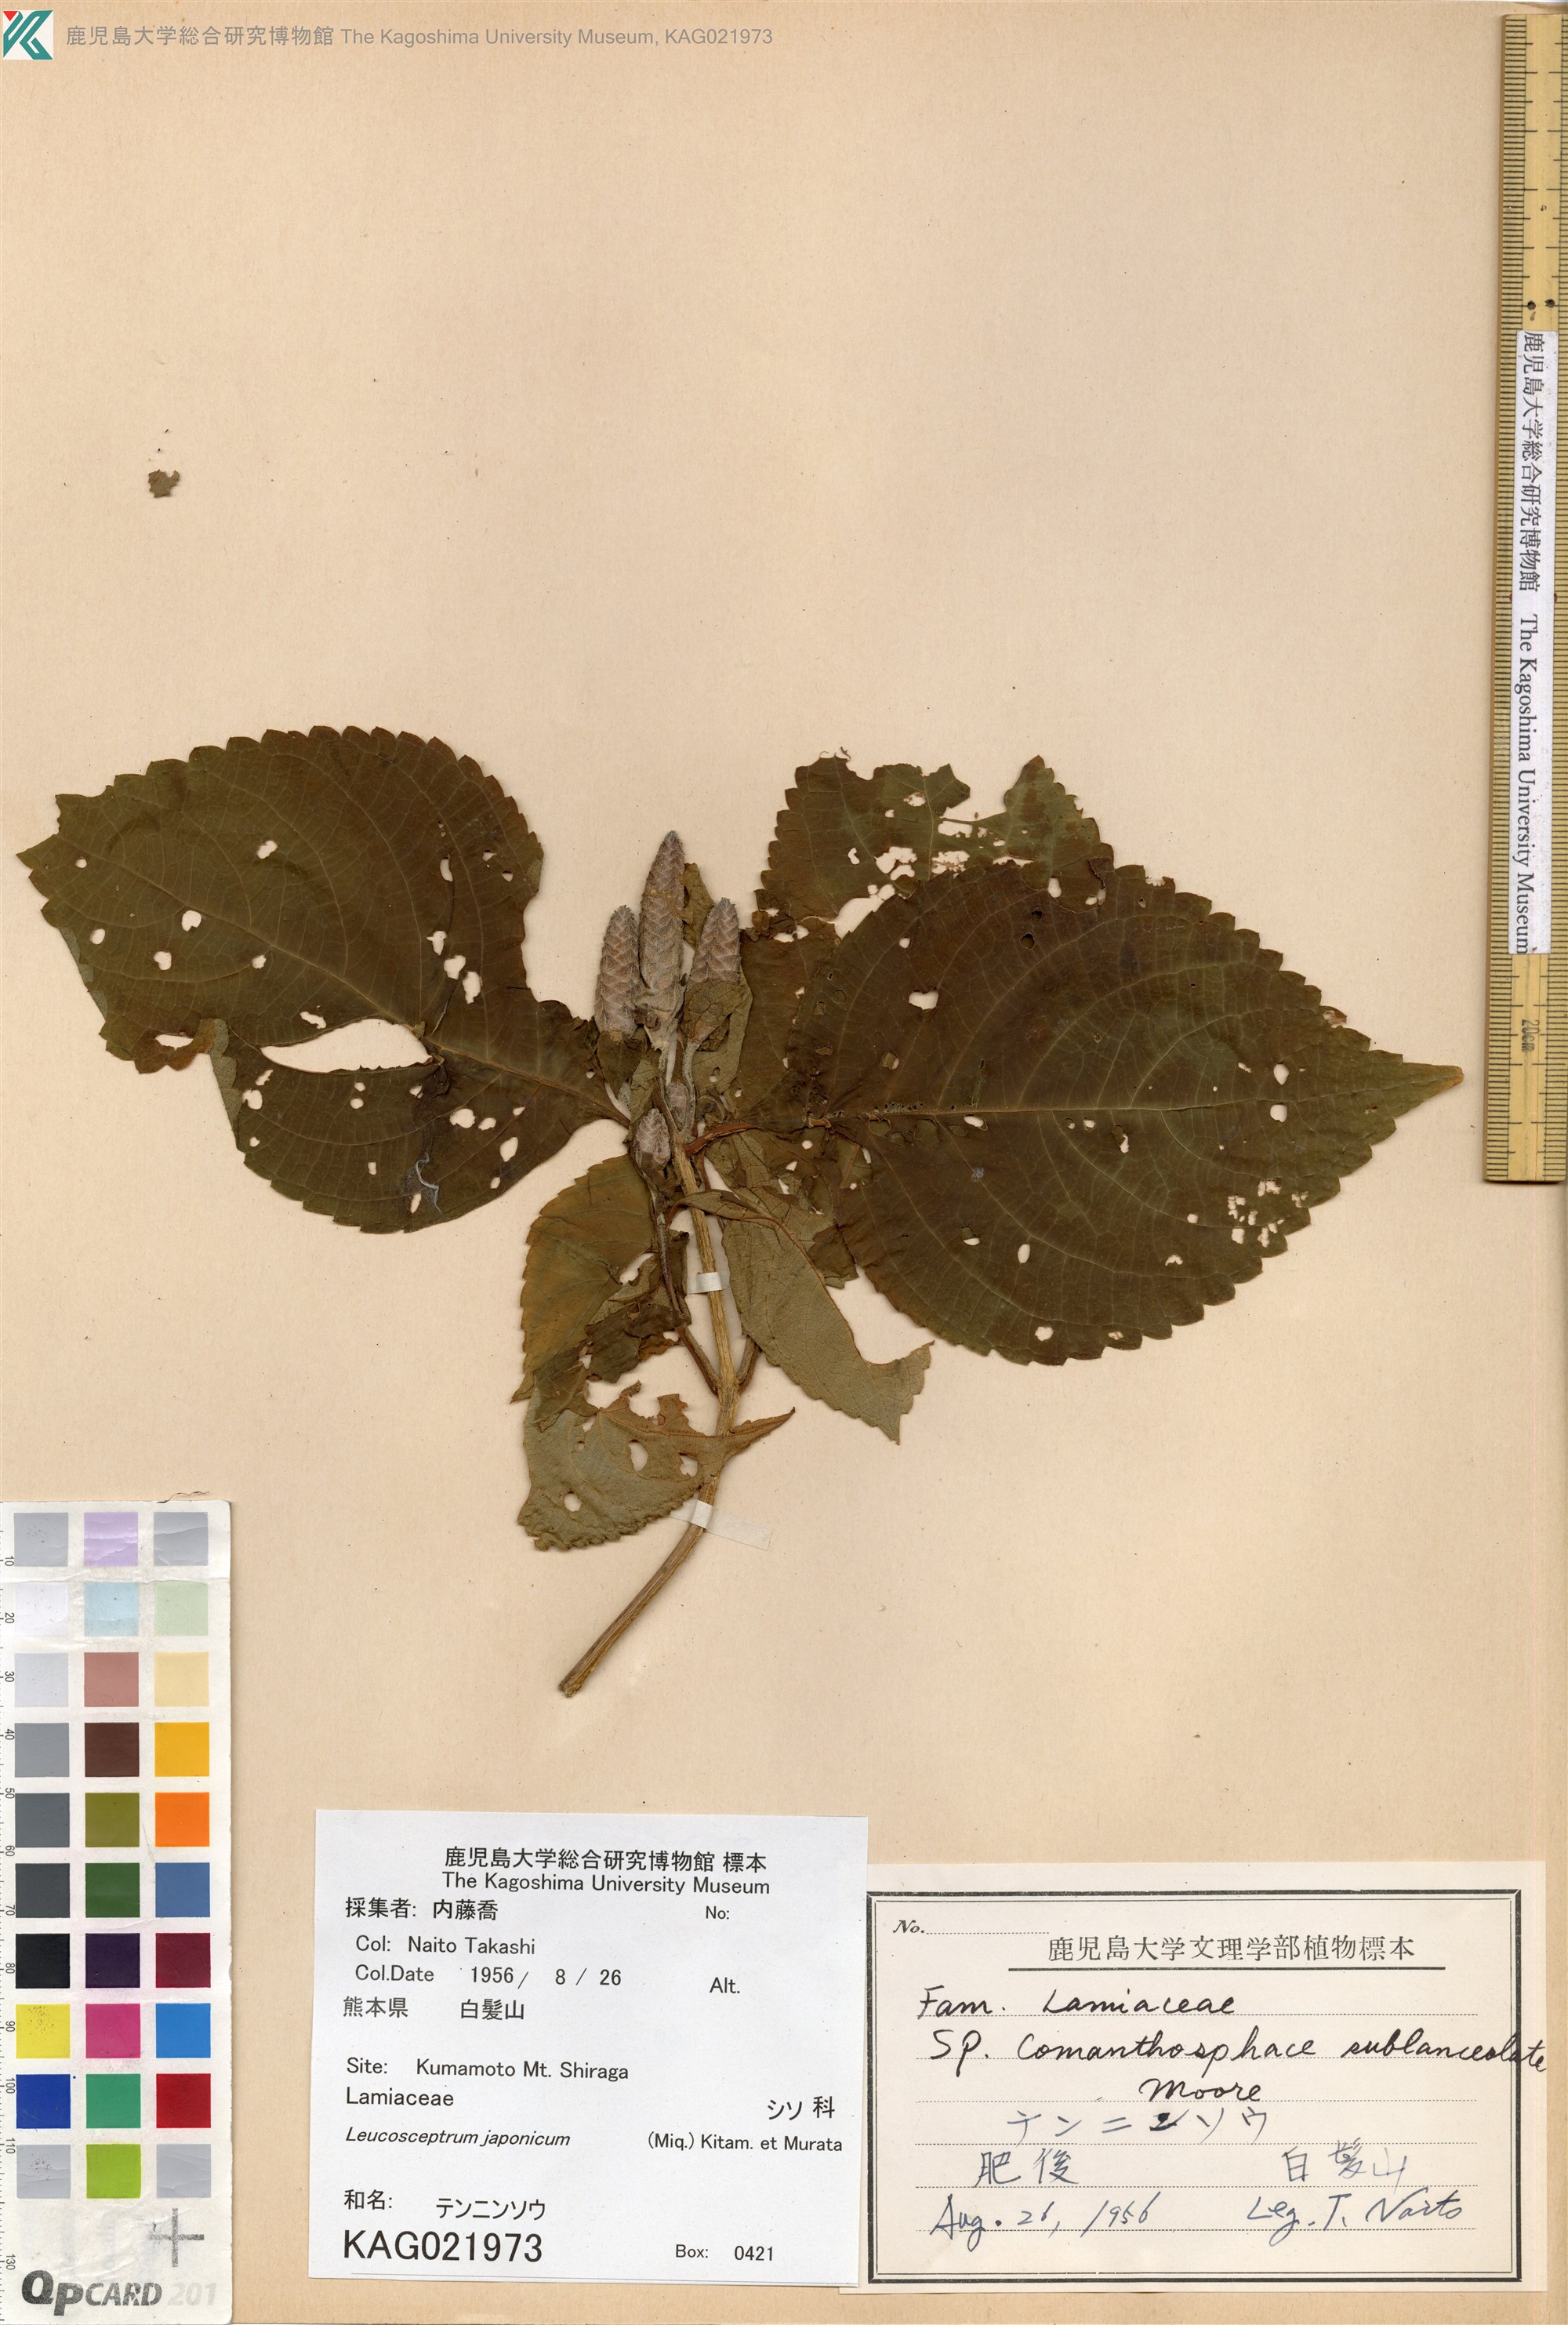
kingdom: Plantae
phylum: Tracheophyta
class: Magnoliopsida
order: Lamiales
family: Lamiaceae
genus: Comanthosphace
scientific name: Comanthosphace japonica
